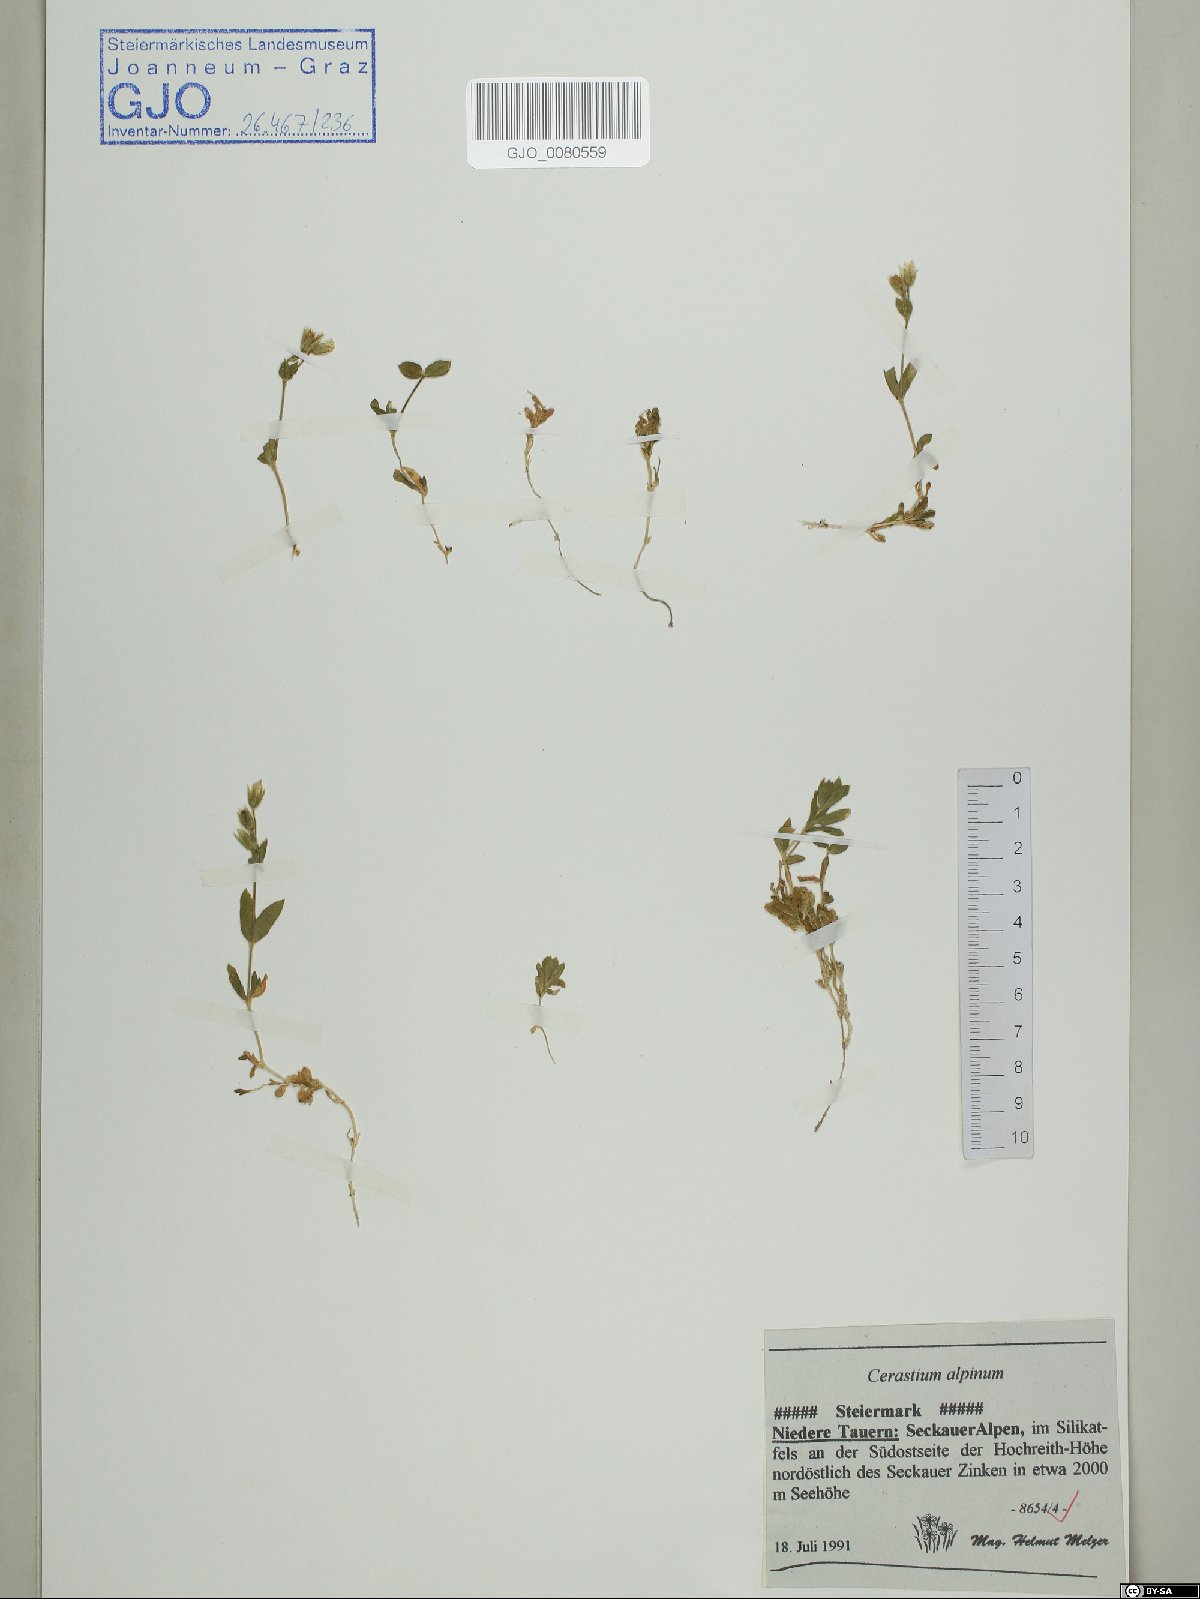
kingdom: Plantae
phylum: Tracheophyta
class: Magnoliopsida
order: Caryophyllales
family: Caryophyllaceae
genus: Cerastium
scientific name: Cerastium alpinum
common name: Alpine mouse-ear
